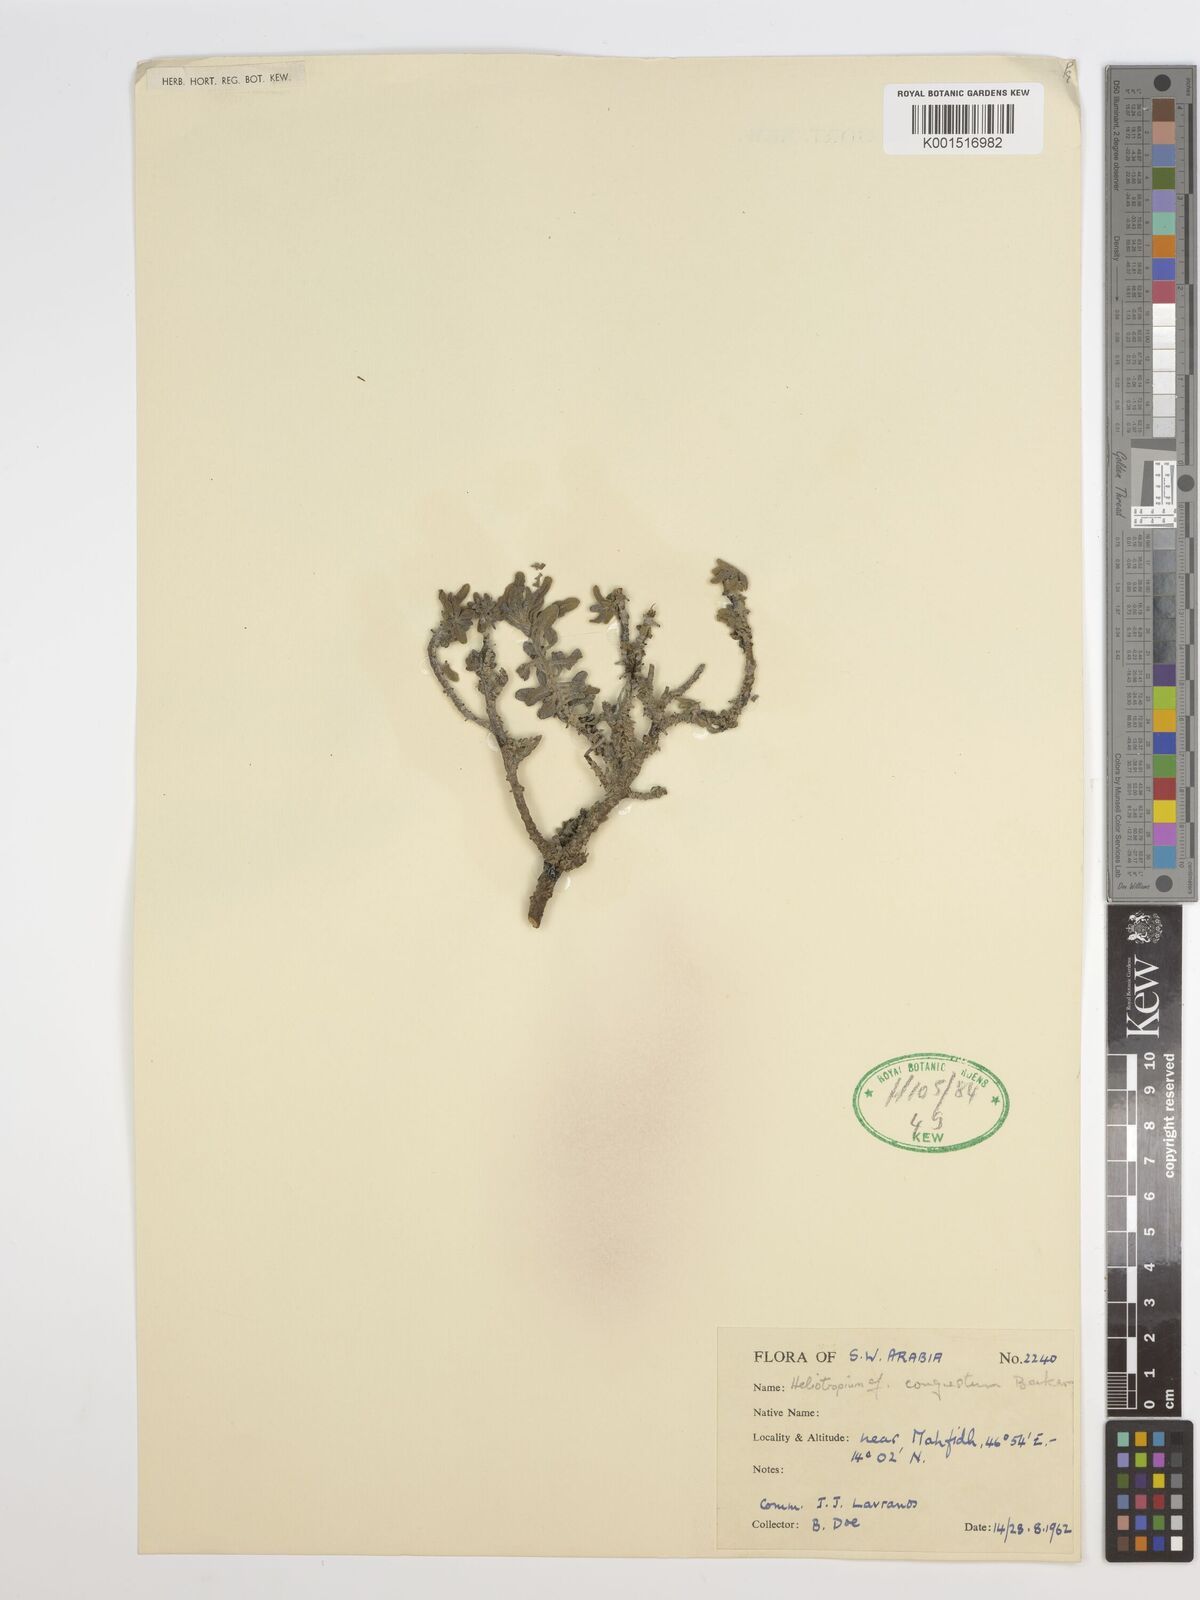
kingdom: Plantae
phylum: Tracheophyta
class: Magnoliopsida
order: Boraginales
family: Heliotropiaceae
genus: Heliotropium
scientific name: Heliotropium congestum
